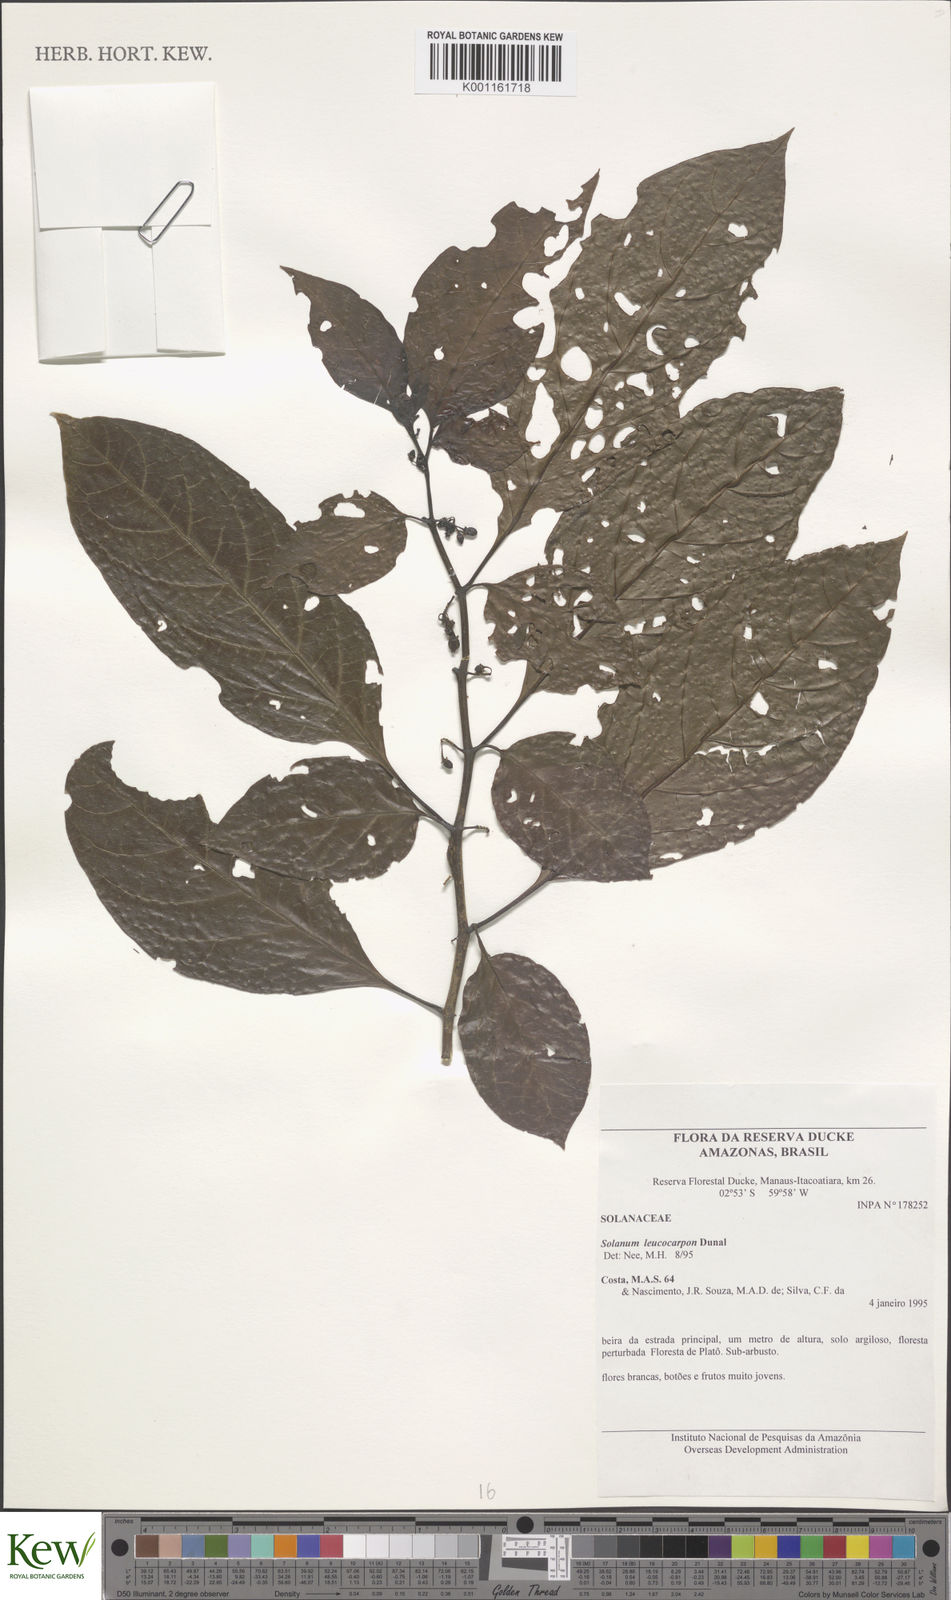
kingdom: Plantae
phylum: Tracheophyta
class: Magnoliopsida
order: Solanales
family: Solanaceae
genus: Solanum
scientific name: Solanum leucocarpon
